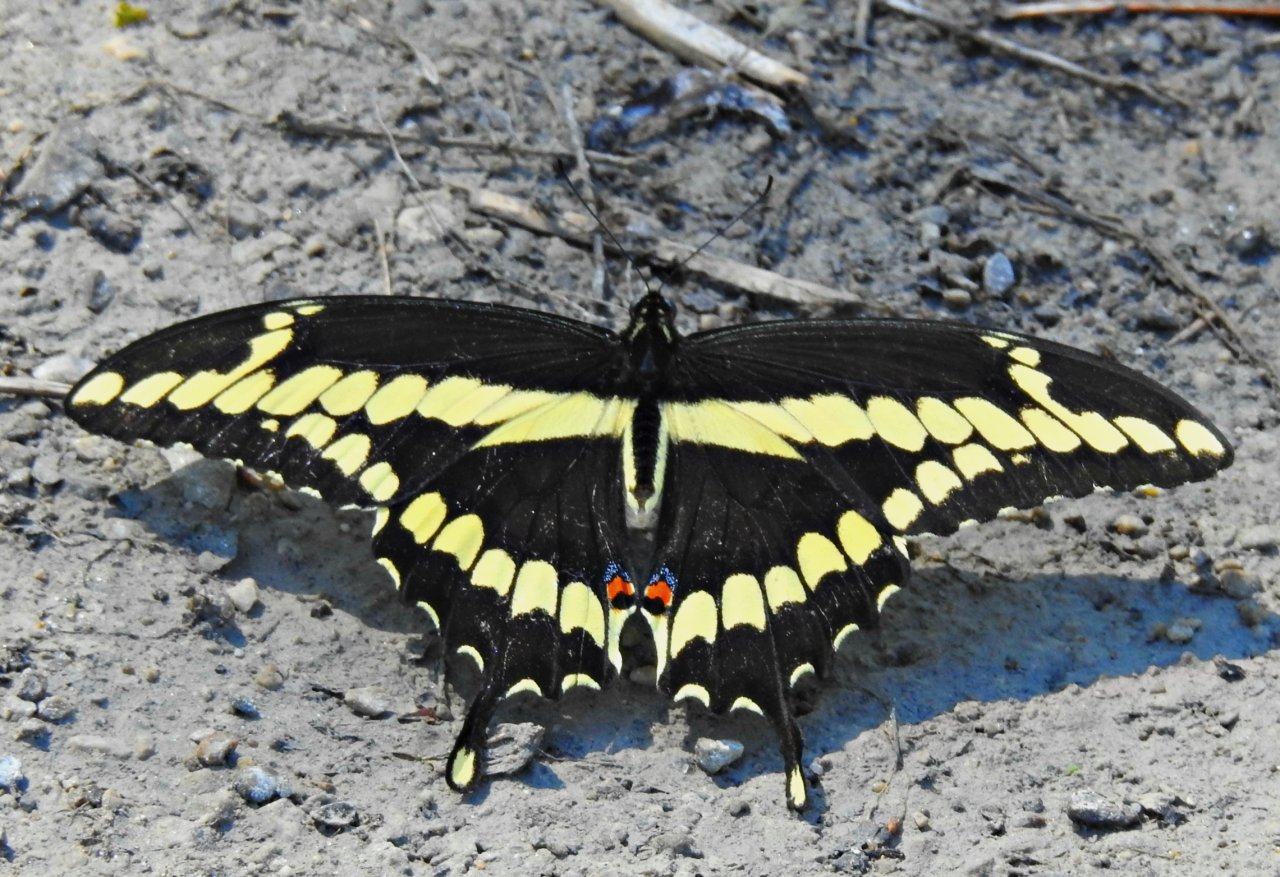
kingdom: Animalia
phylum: Arthropoda
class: Insecta
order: Lepidoptera
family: Papilionidae
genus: Papilio
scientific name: Papilio cresphontes
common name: Eastern Giant Swallowtail
